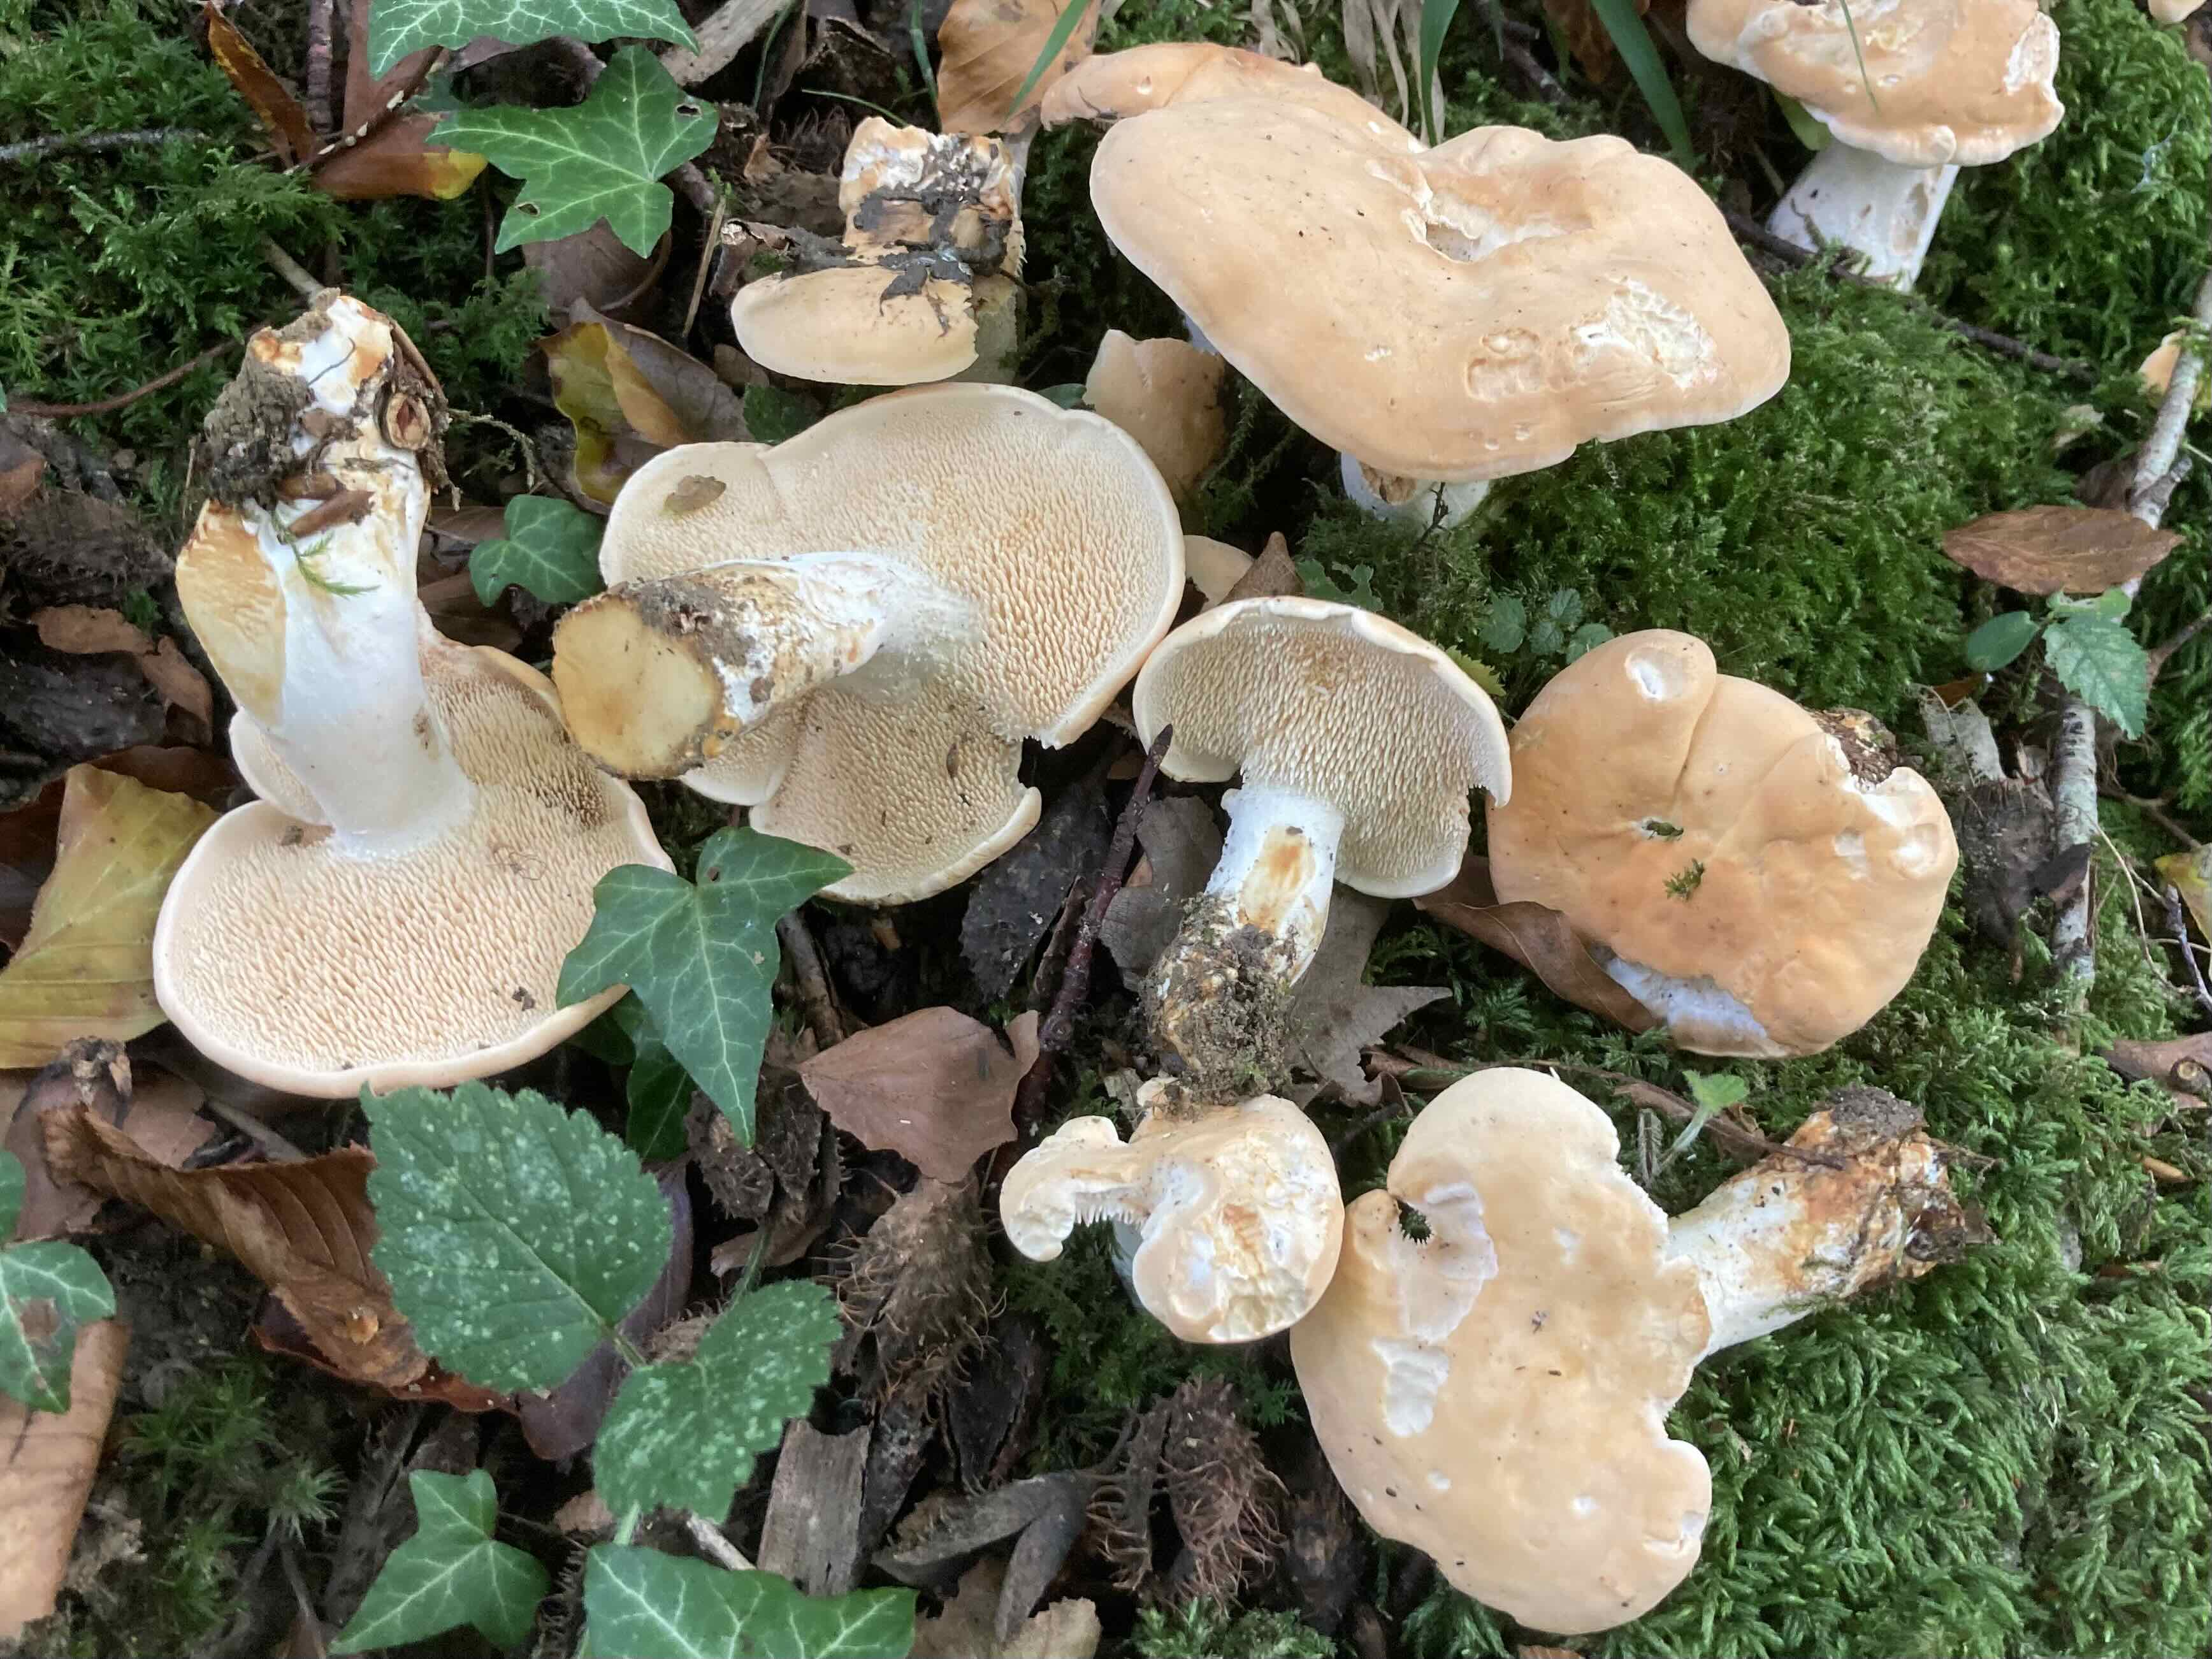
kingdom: Fungi
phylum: Basidiomycota
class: Agaricomycetes
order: Cantharellales
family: Hydnaceae
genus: Hydnum
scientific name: Hydnum slovenicum
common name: slovensk pigsvamp
